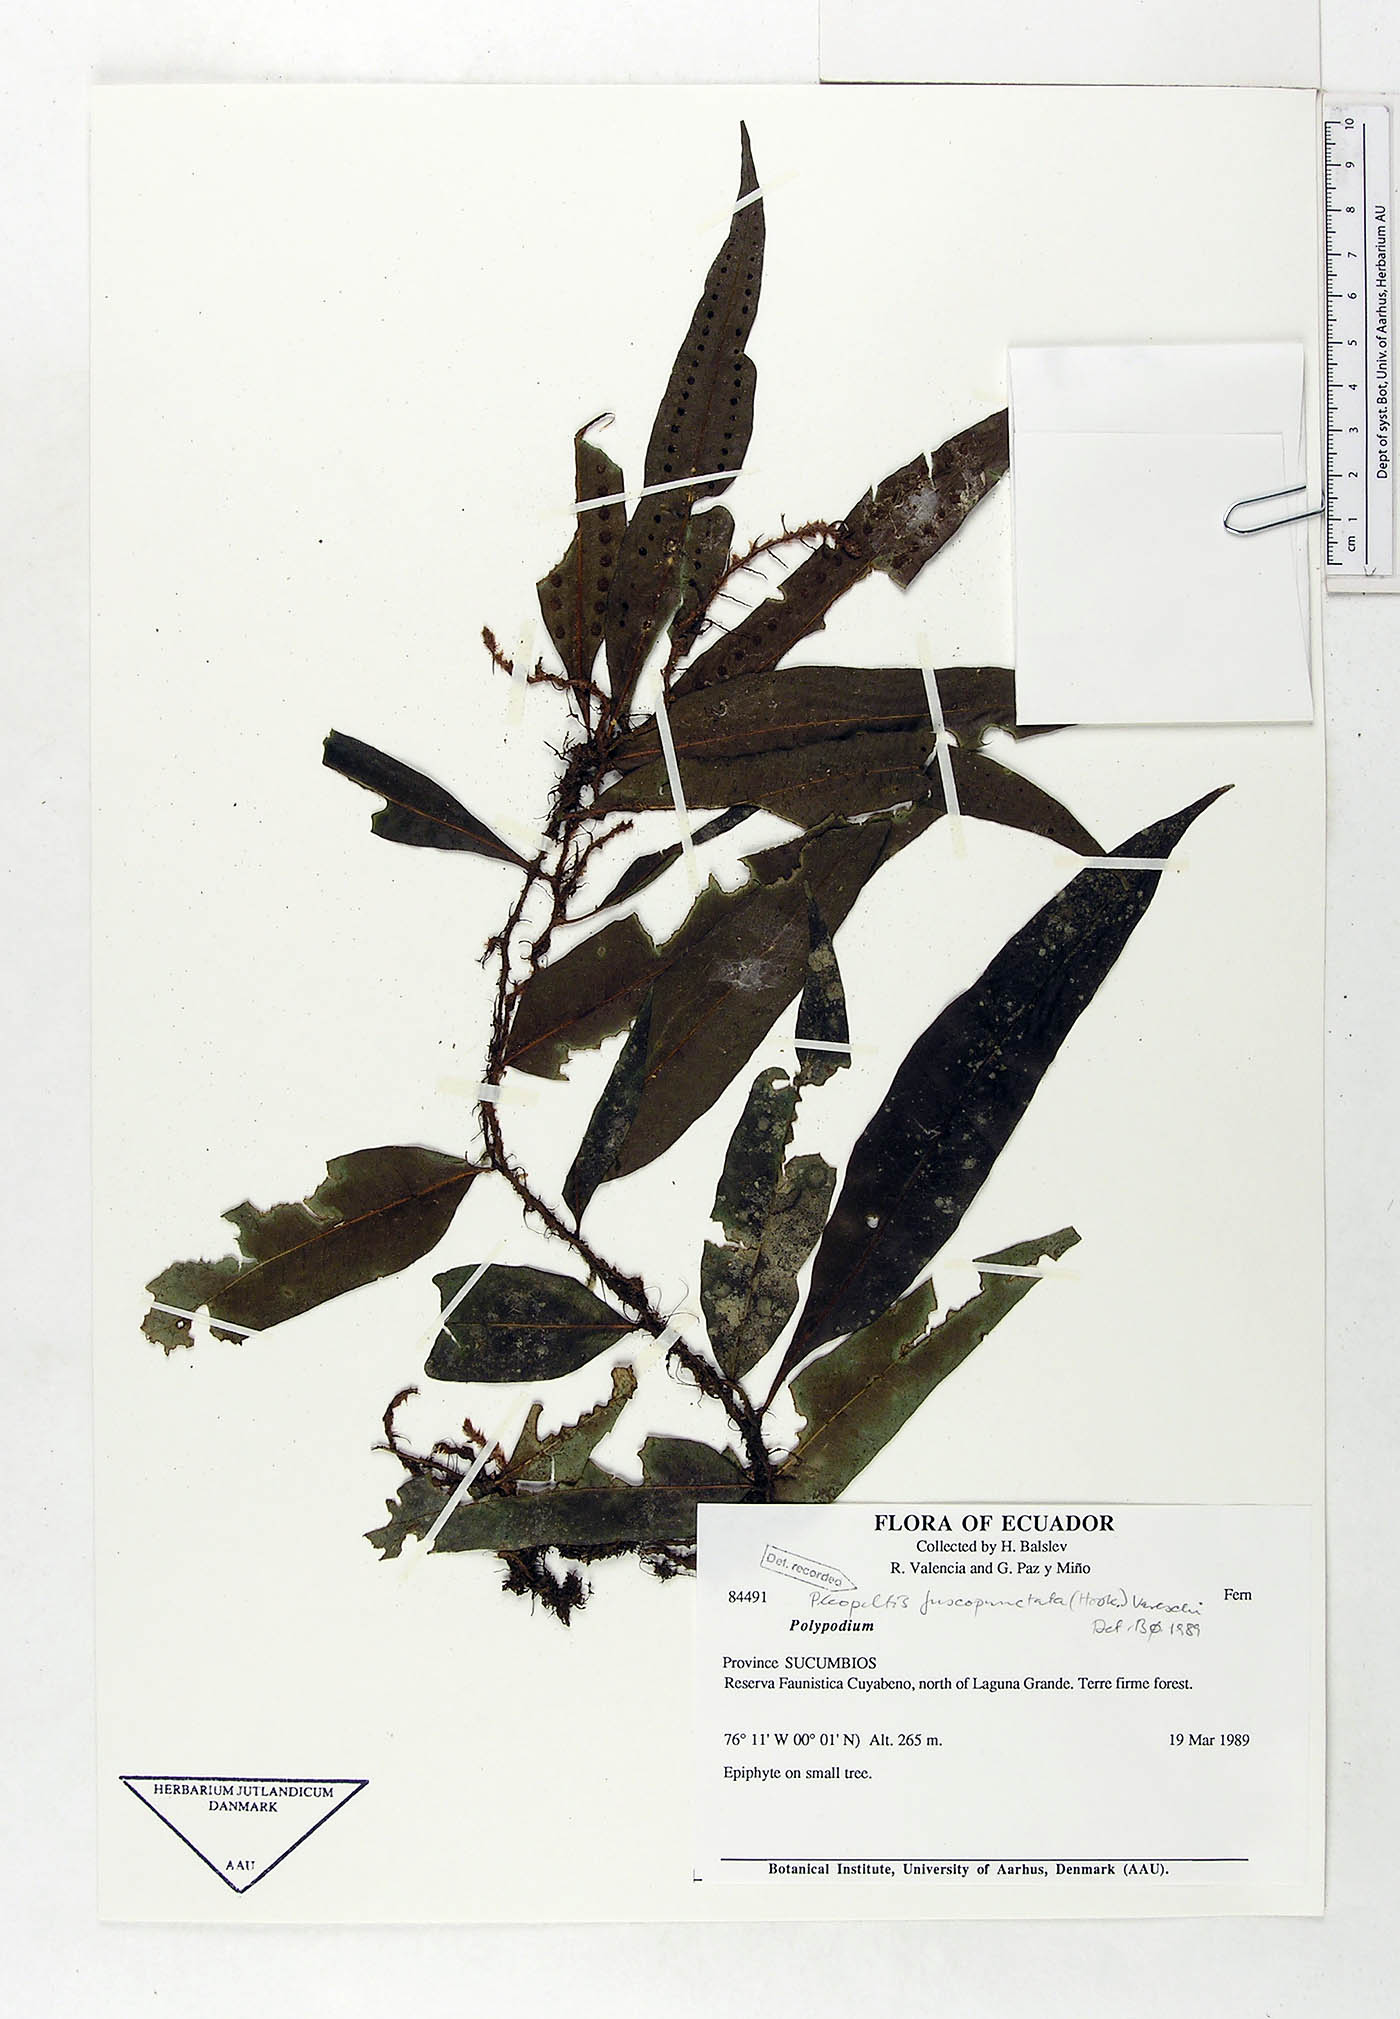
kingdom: Plantae
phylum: Tracheophyta
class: Polypodiopsida
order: Polypodiales
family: Polypodiaceae
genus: Microgramma
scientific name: Microgramma dictyophylla
